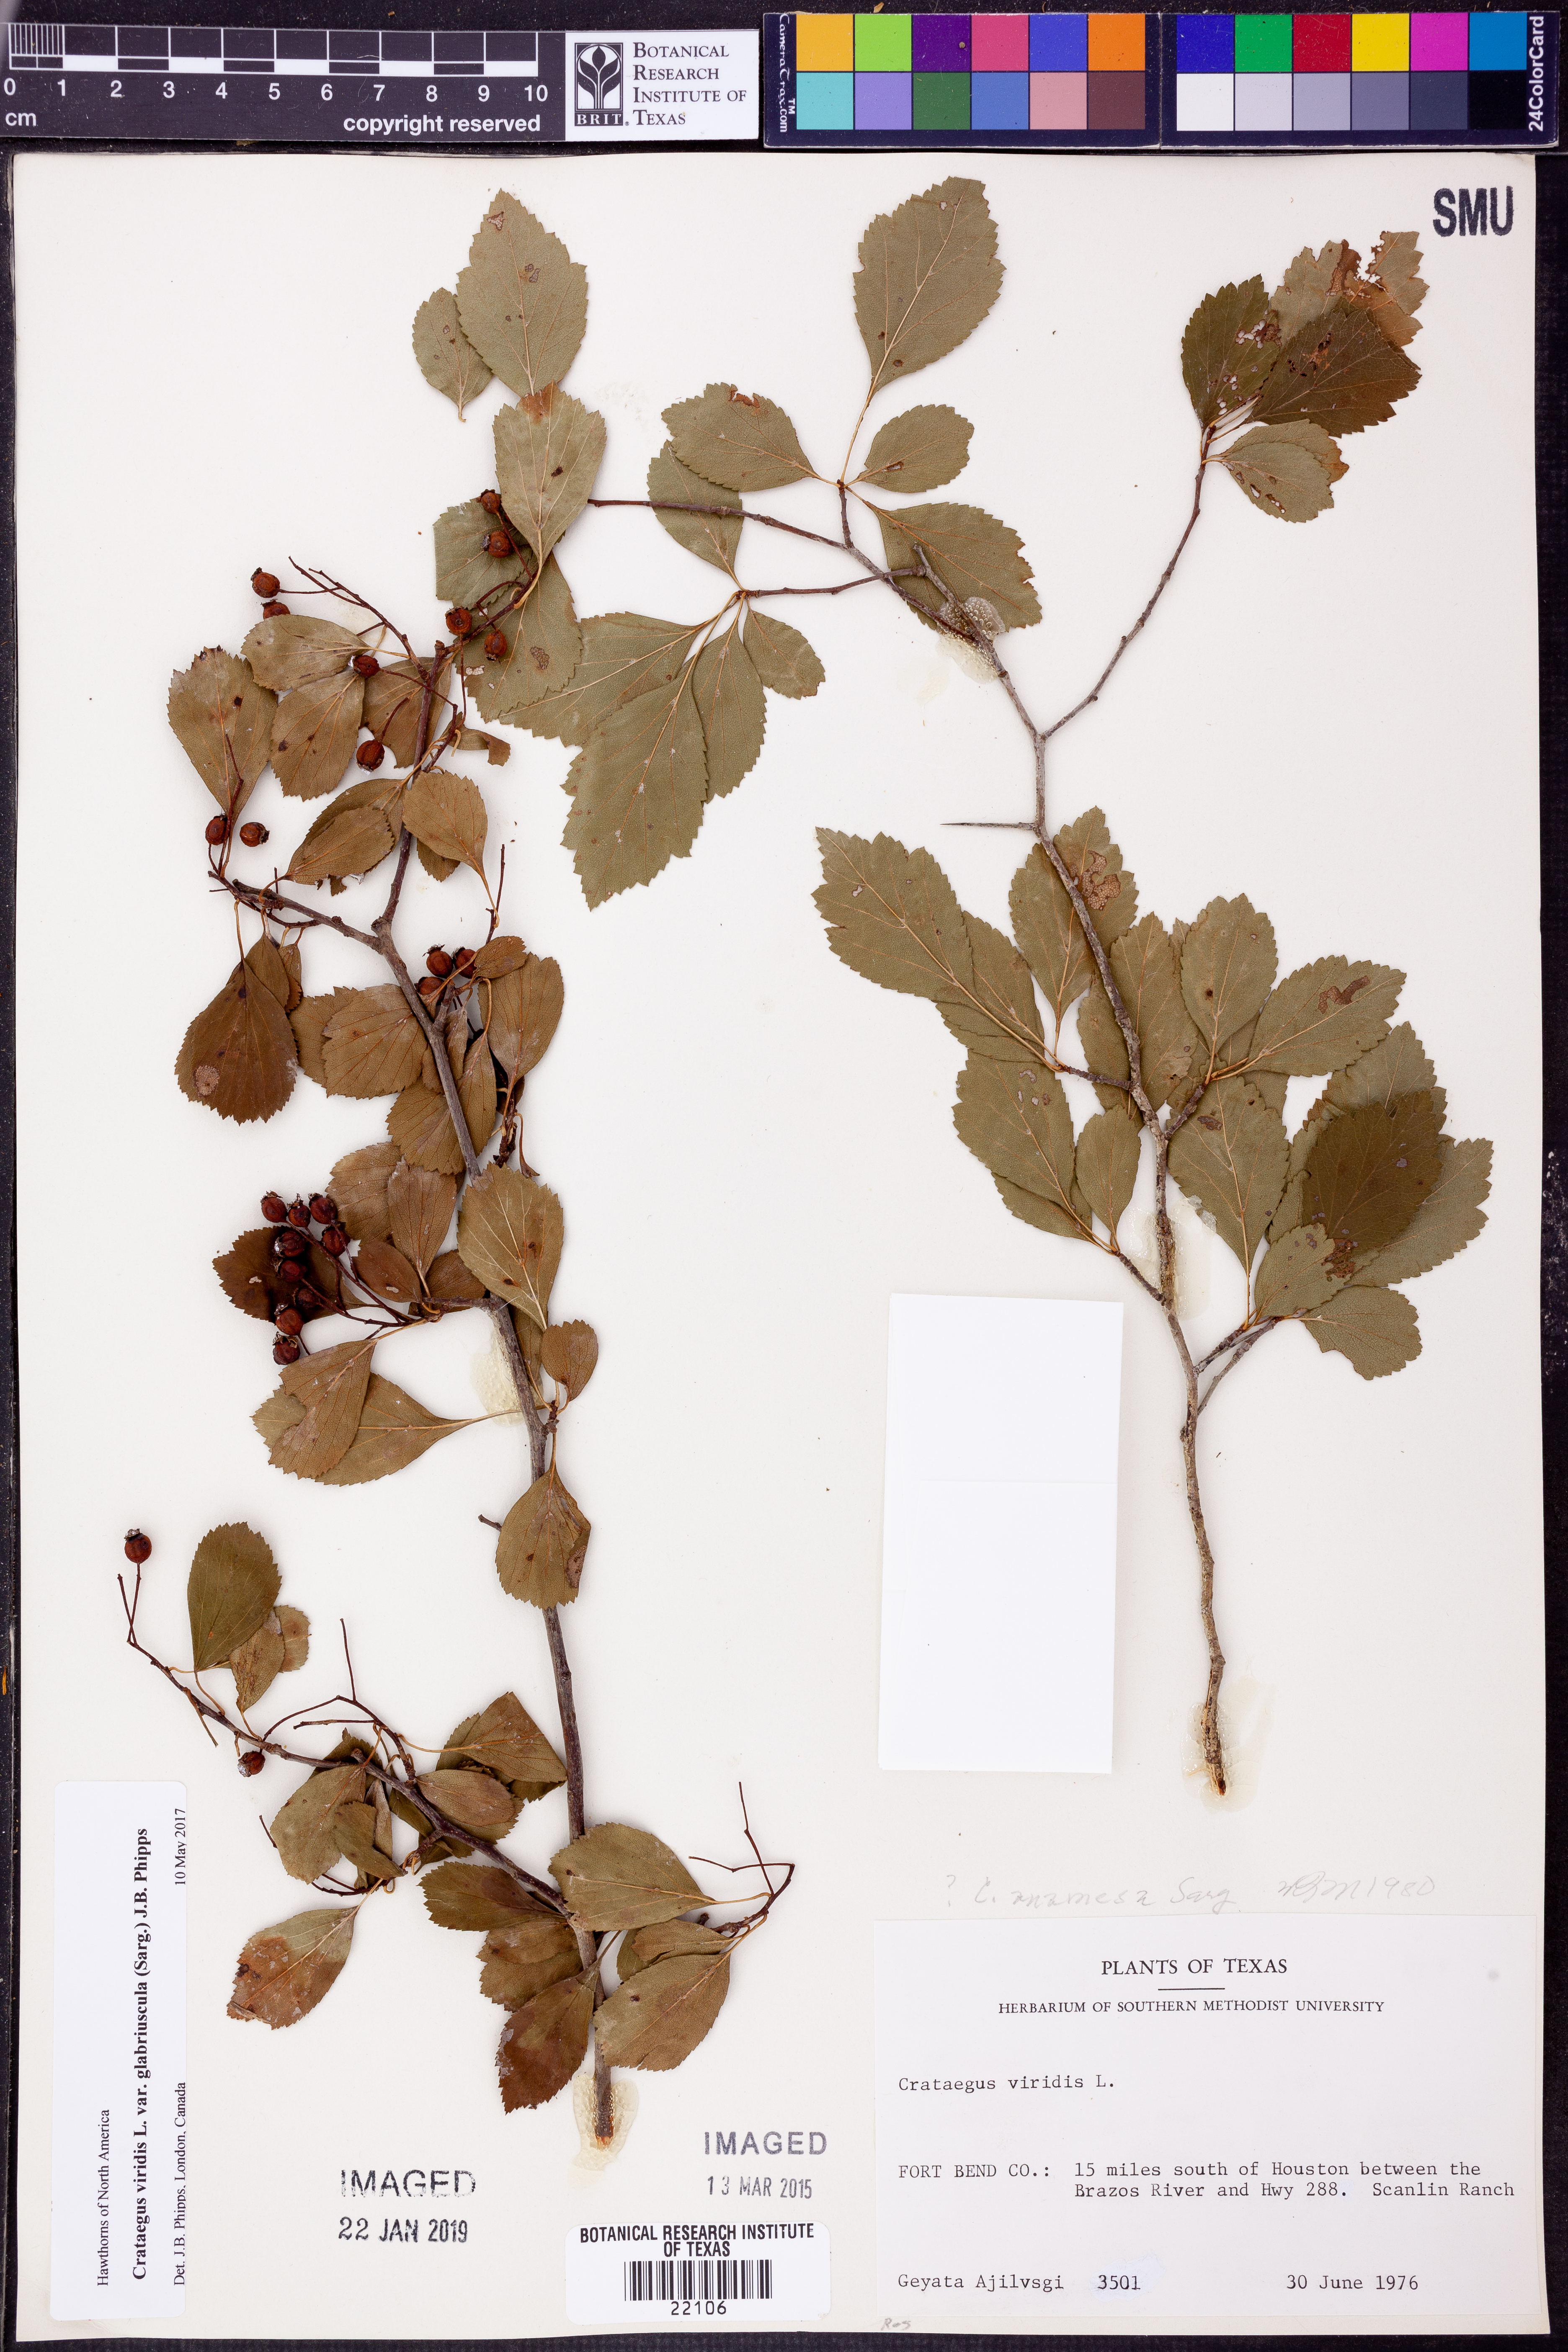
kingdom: Plantae
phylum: Tracheophyta
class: Magnoliopsida
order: Rosales
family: Rosaceae
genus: Crataegus
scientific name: Crataegus viridis
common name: Southernthorn
